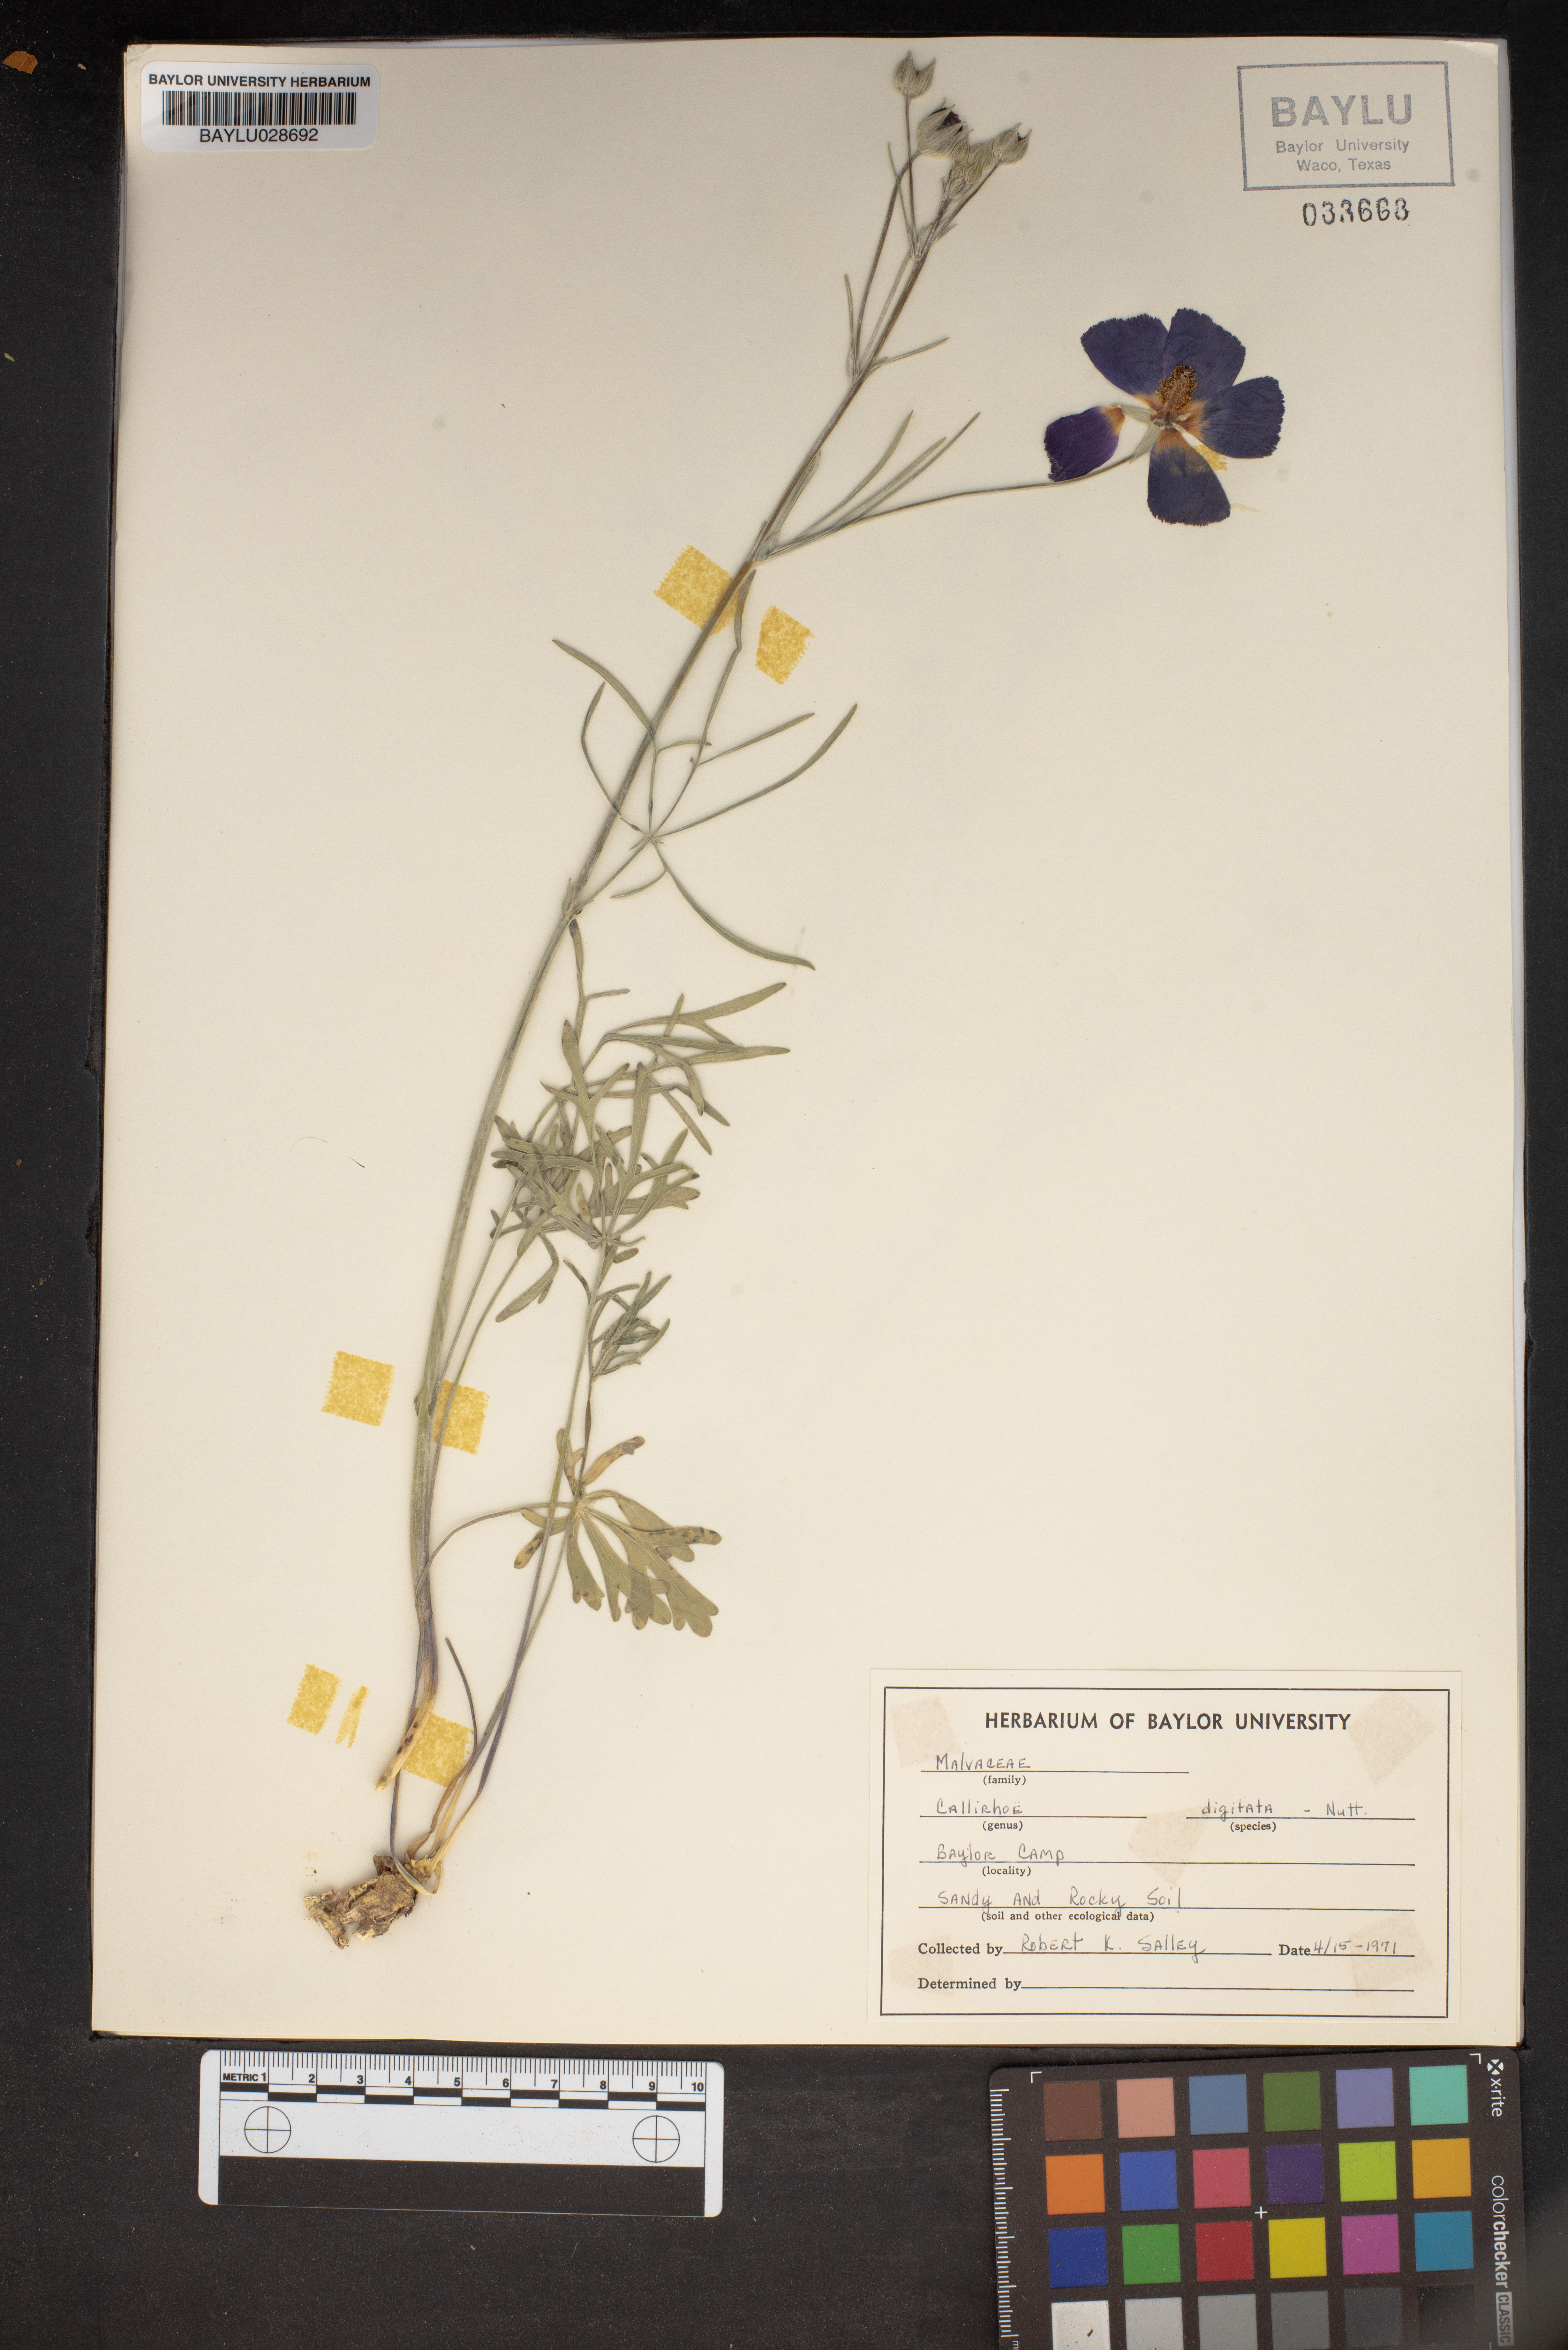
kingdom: Plantae
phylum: Tracheophyta
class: Magnoliopsida
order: Malvales
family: Malvaceae
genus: Callirhoe
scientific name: Callirhoe digitata
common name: Finger poppy-mallow
